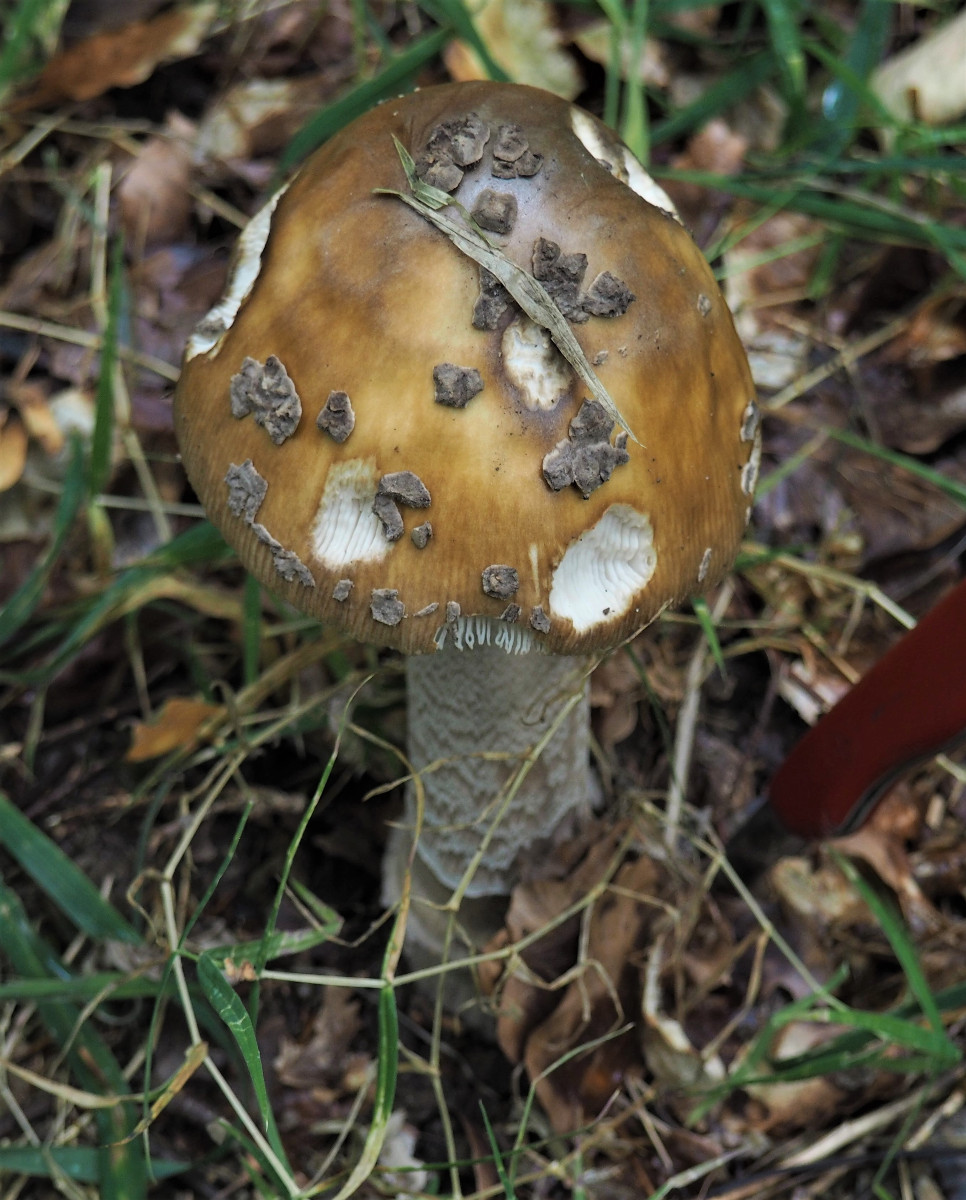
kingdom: Fungi
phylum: Basidiomycota
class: Agaricomycetes
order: Agaricales
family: Amanitaceae
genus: Amanita
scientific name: Amanita ceciliae
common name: stor kam-fluesvamp
